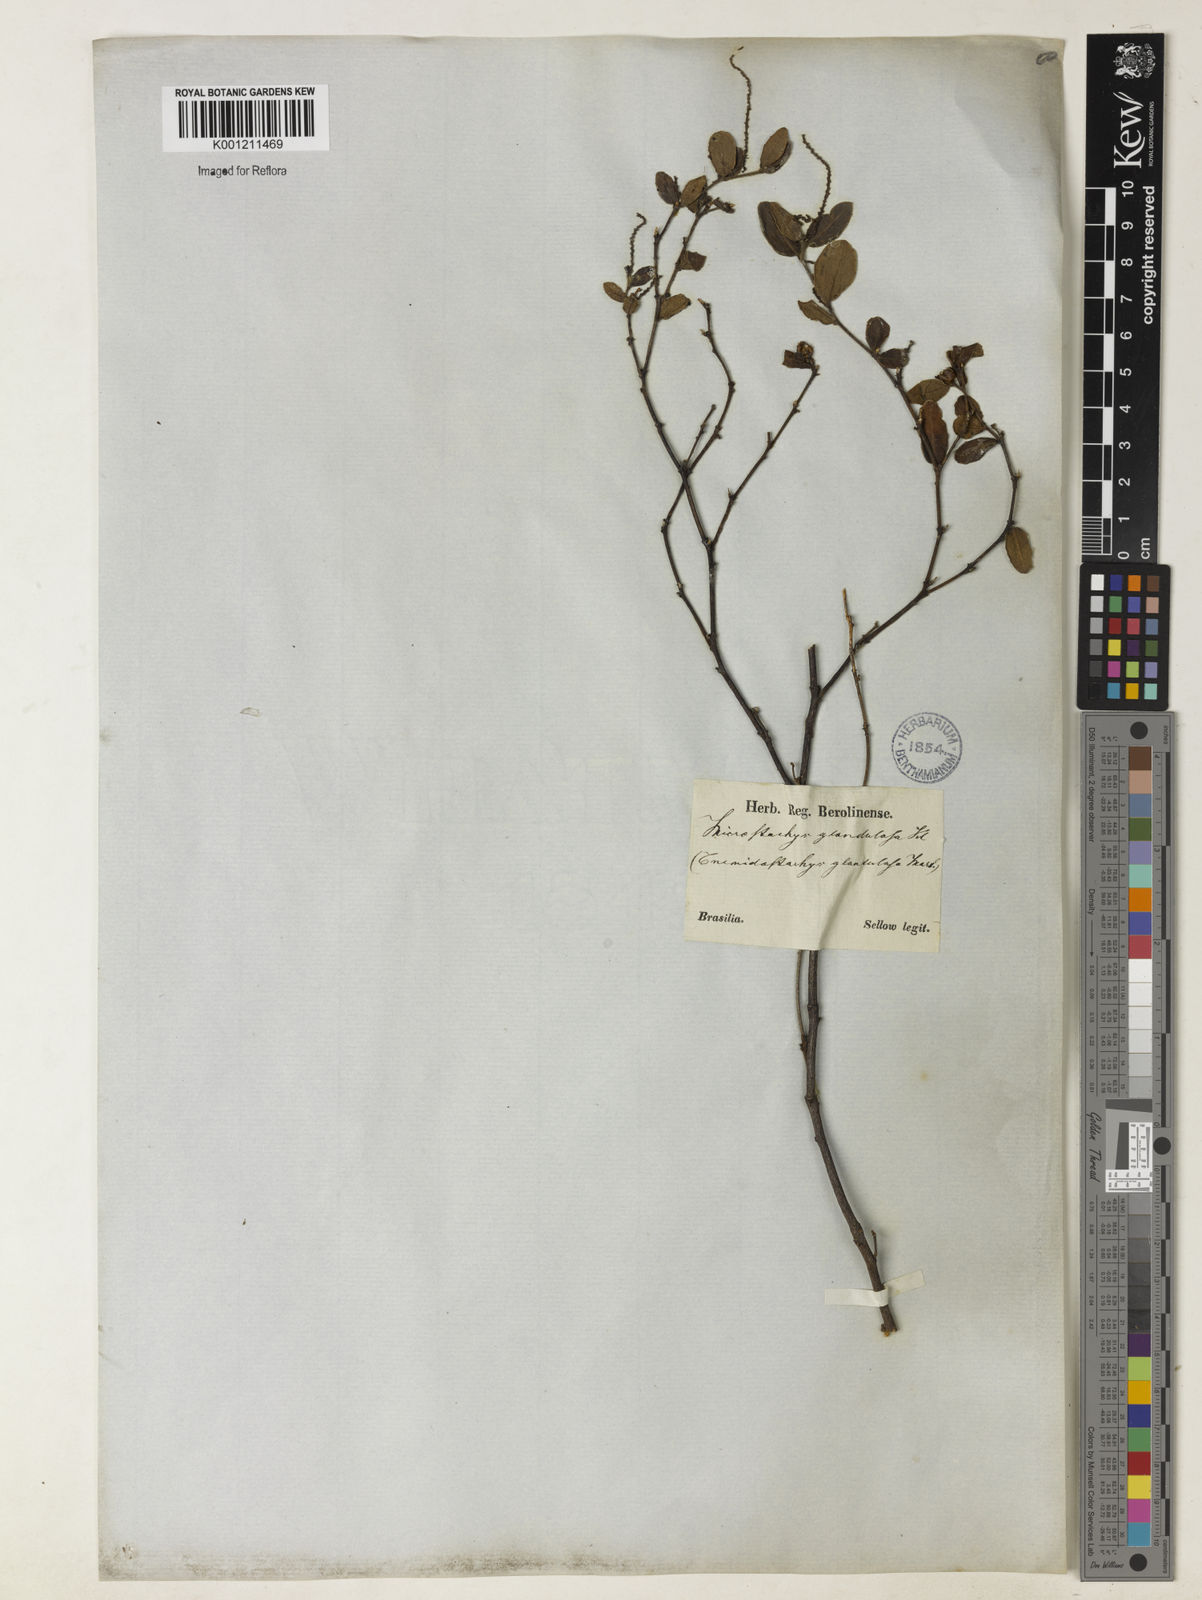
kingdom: Plantae
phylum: Tracheophyta
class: Magnoliopsida
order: Malpighiales
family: Euphorbiaceae
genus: Microstachys
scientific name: Microstachys glandulosa
